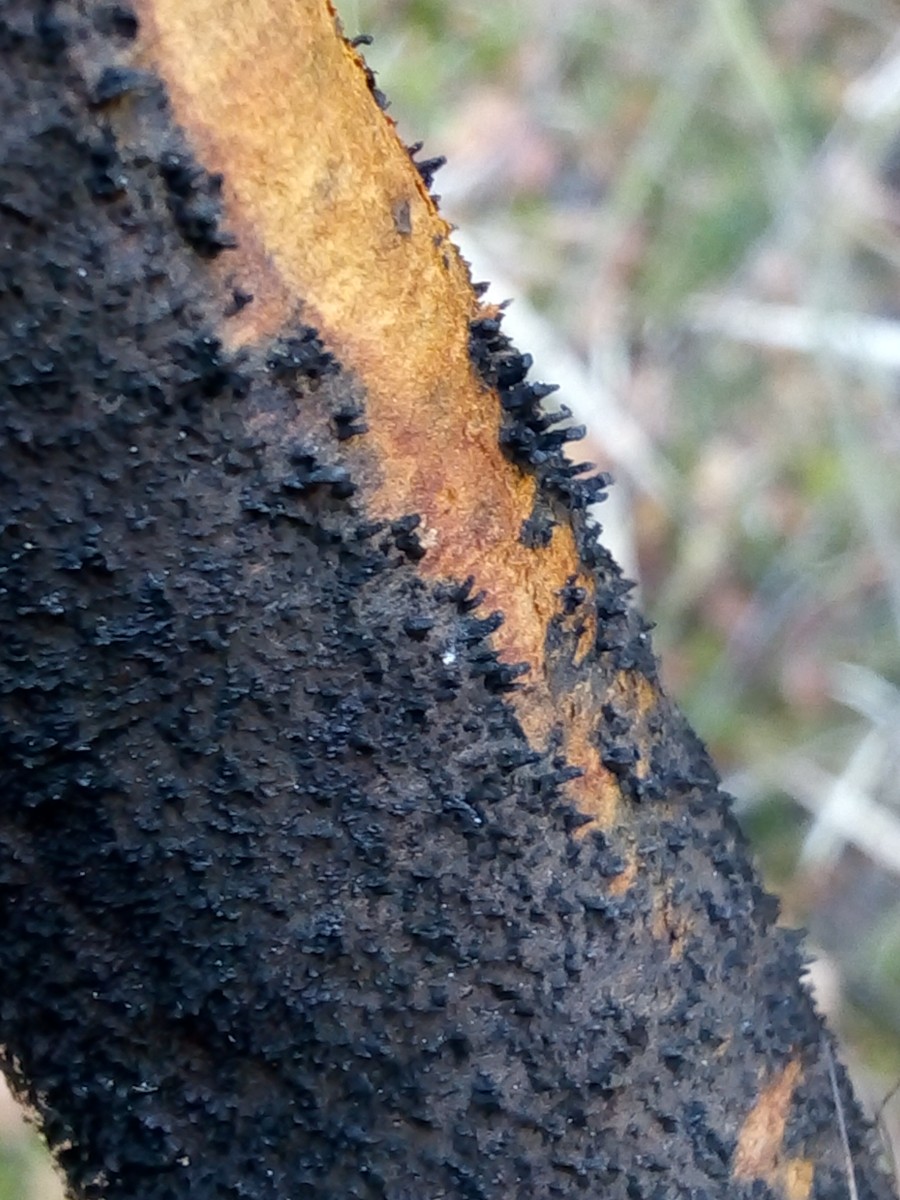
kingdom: Fungi
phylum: Ascomycota
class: Sordariomycetes
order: Diaporthales
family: Gnomoniaceae
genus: Xenotypa
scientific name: Xenotypa aterrima
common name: Birch bark stripper
